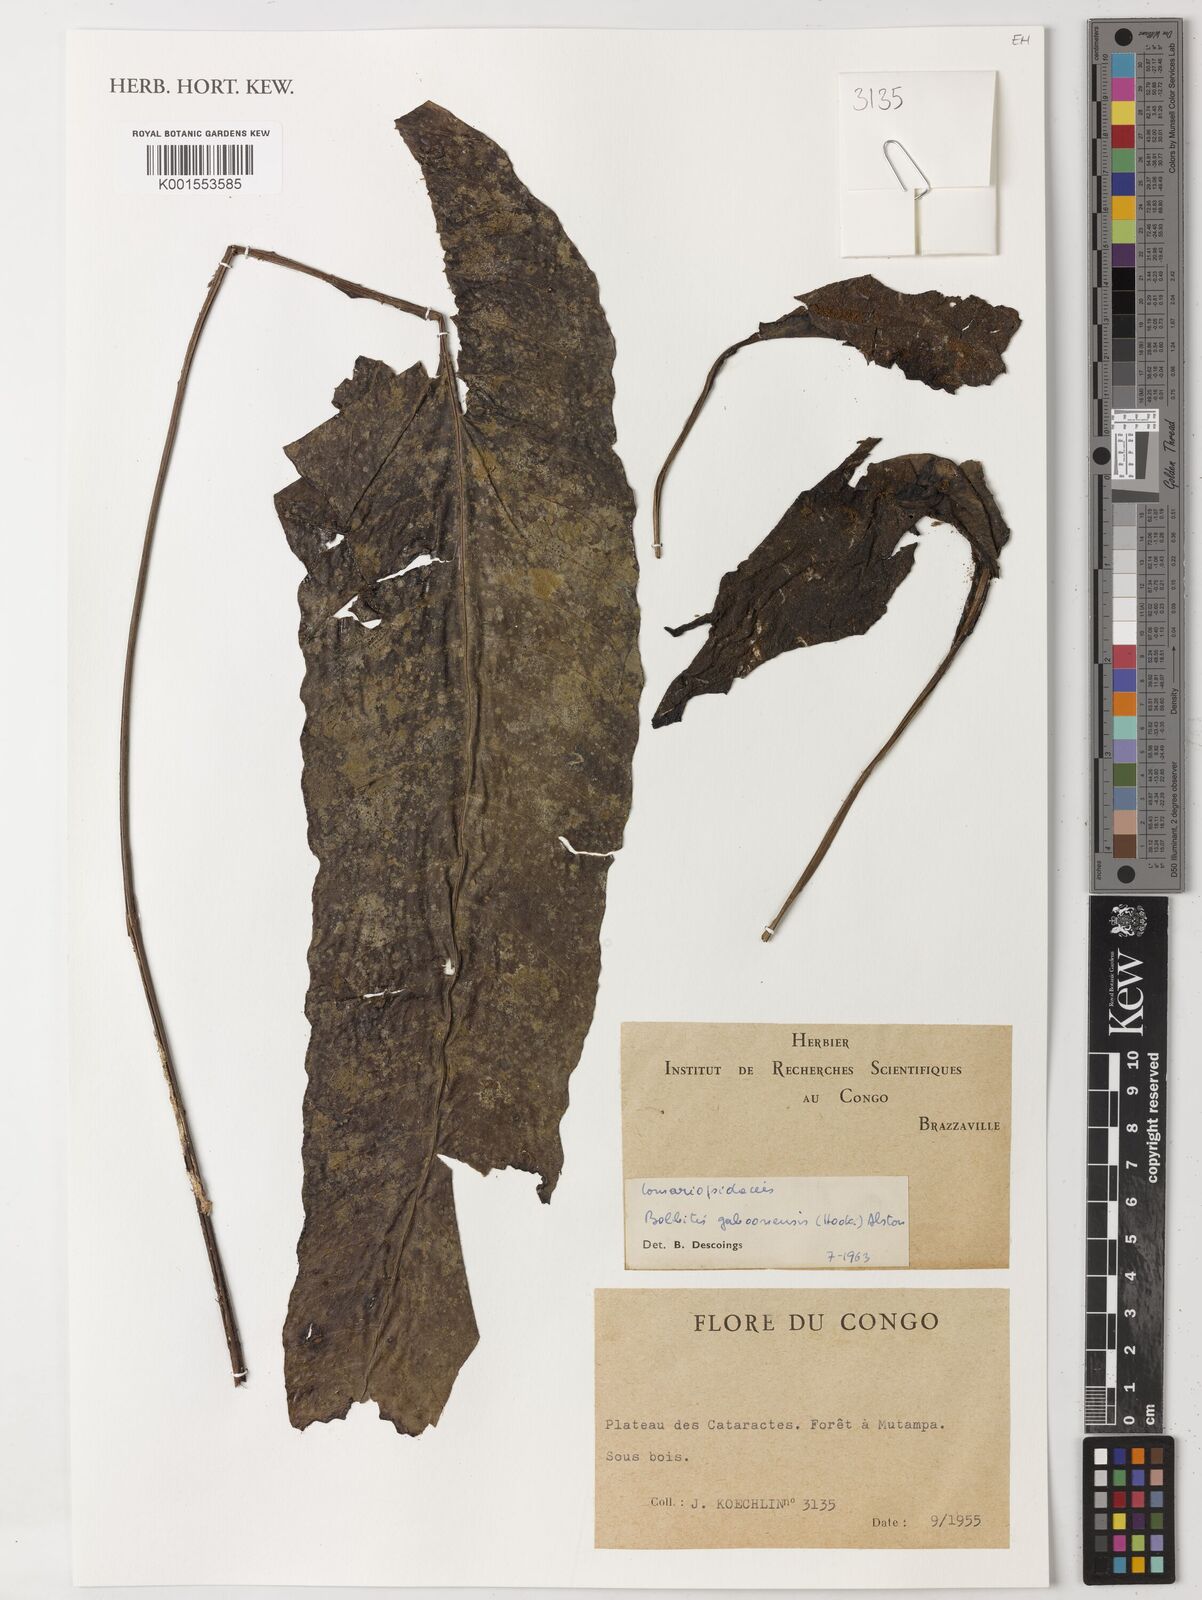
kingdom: Plantae
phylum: Tracheophyta
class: Polypodiopsida
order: Polypodiales
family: Dryopteridaceae
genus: Bolbitis
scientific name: Bolbitis gaboonensis
